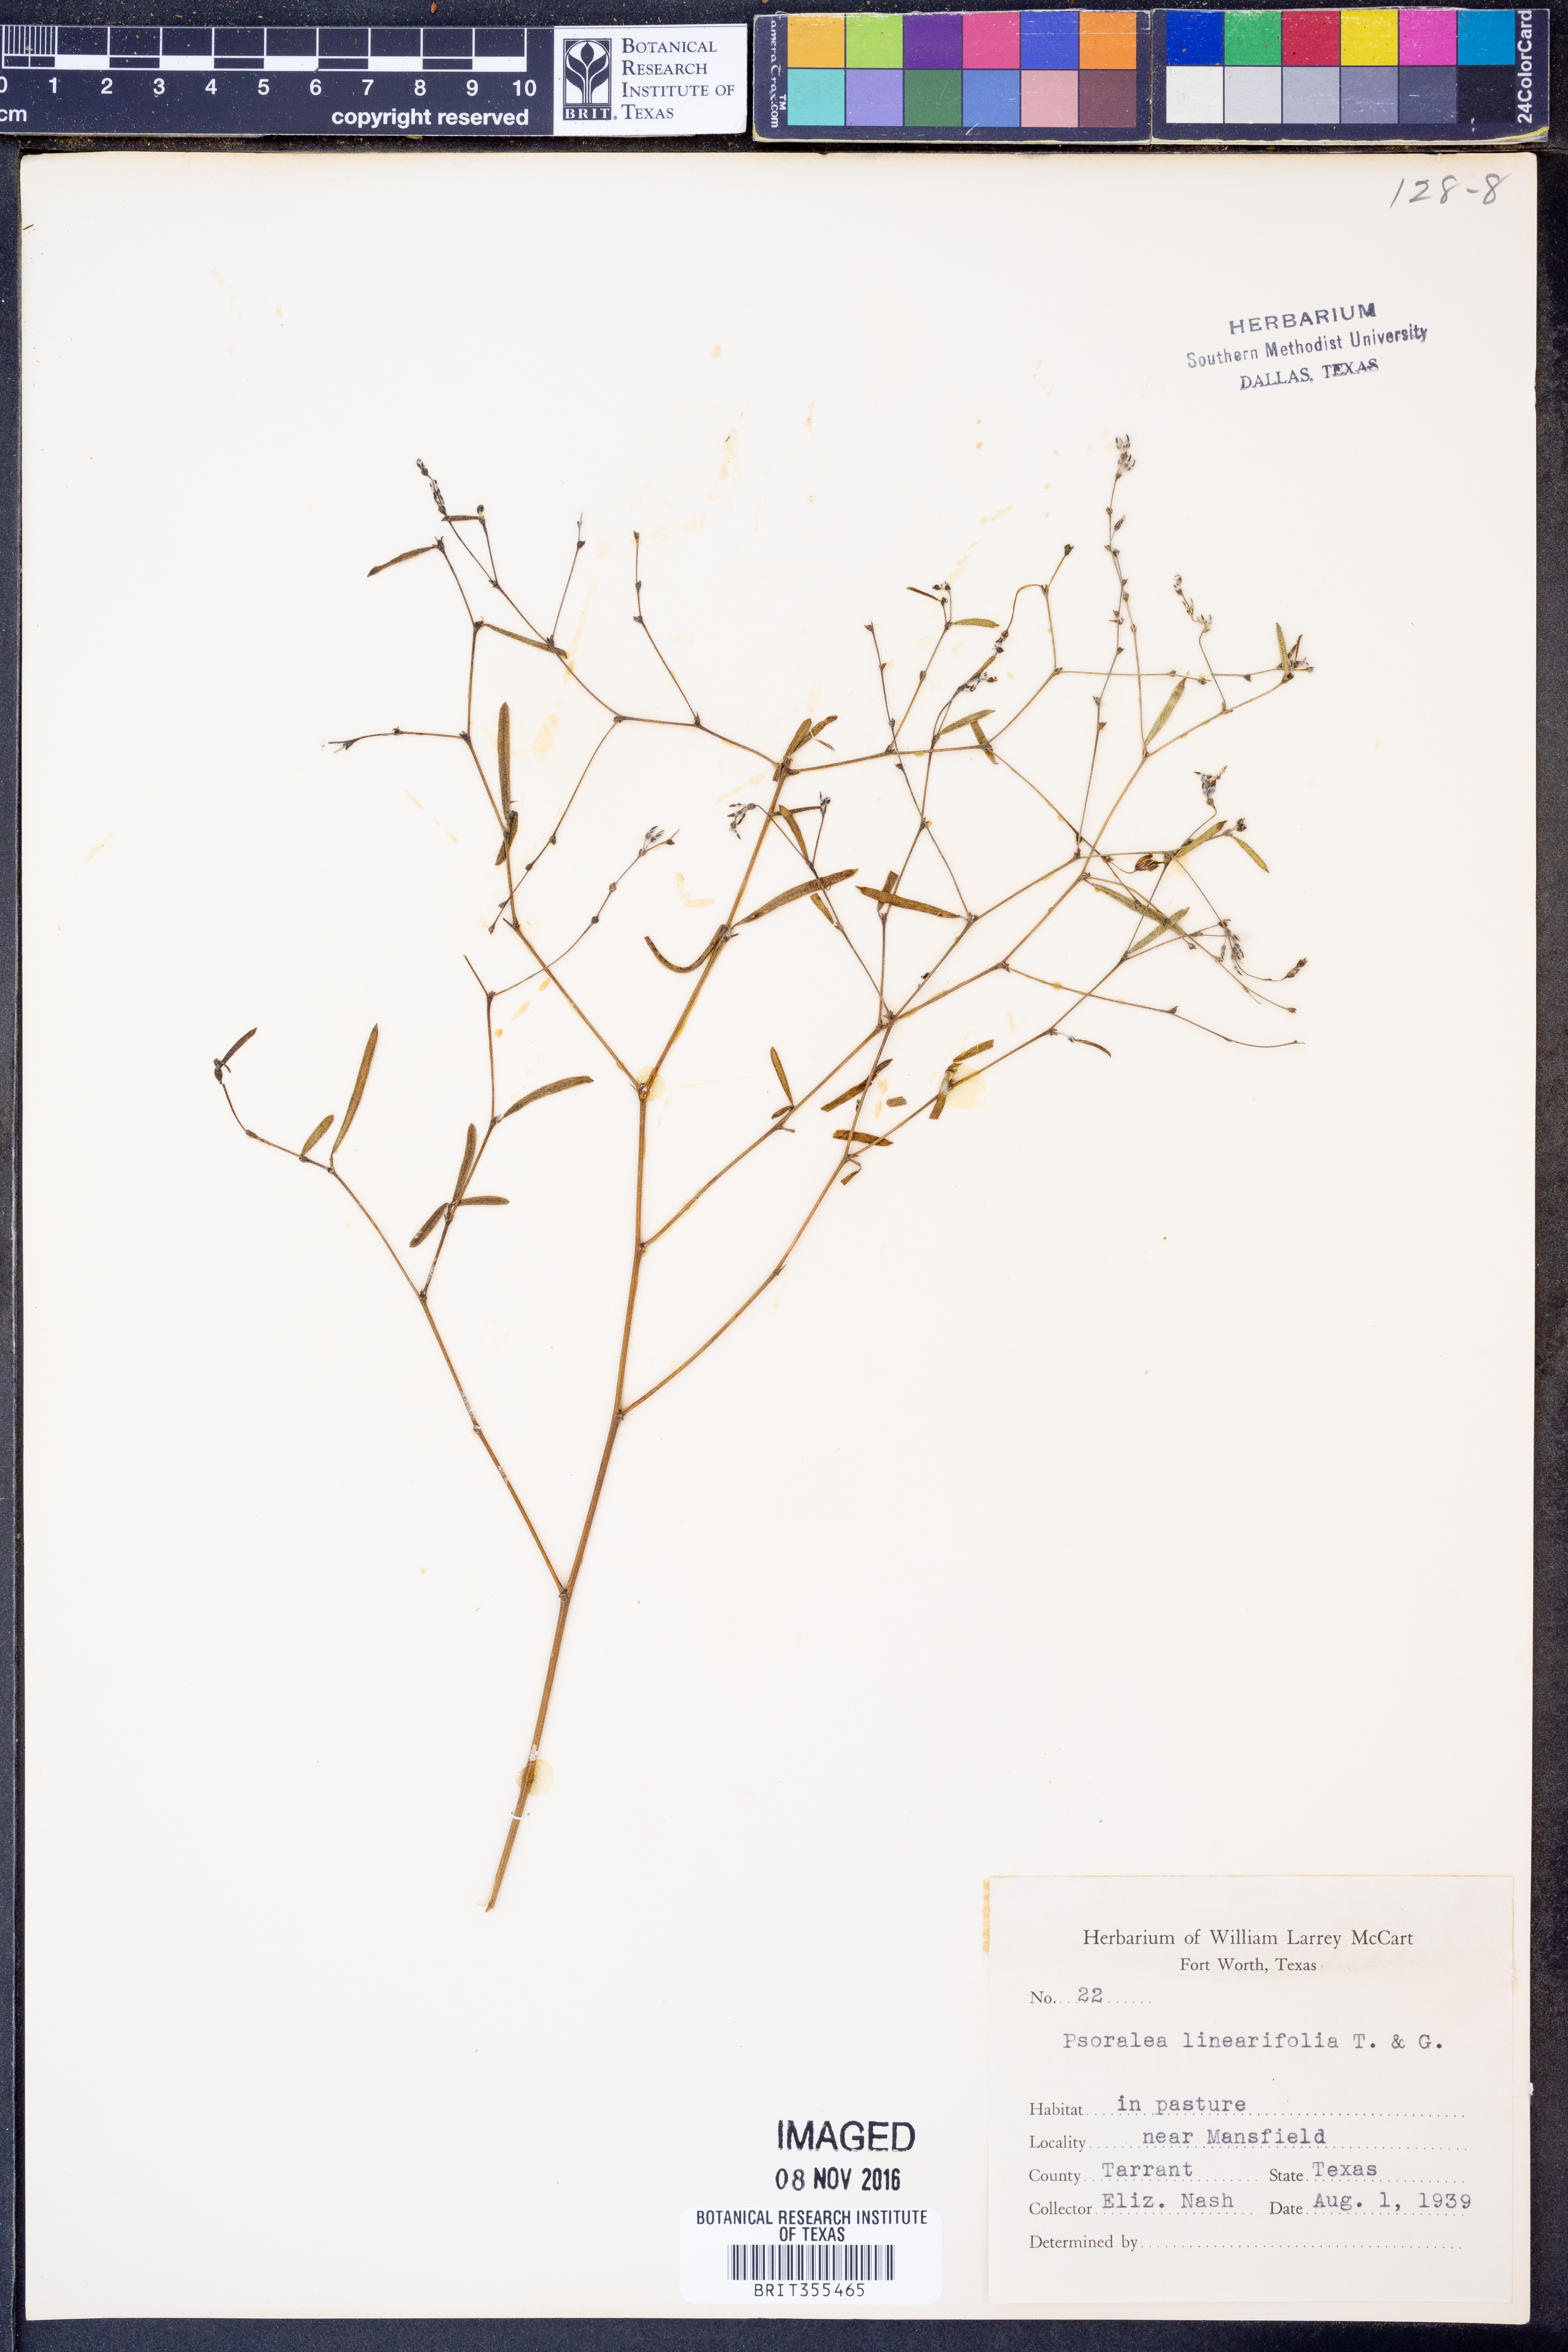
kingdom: Plantae
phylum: Tracheophyta
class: Magnoliopsida
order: Fabales
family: Fabaceae
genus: Pediomelum
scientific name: Pediomelum linearifolium
